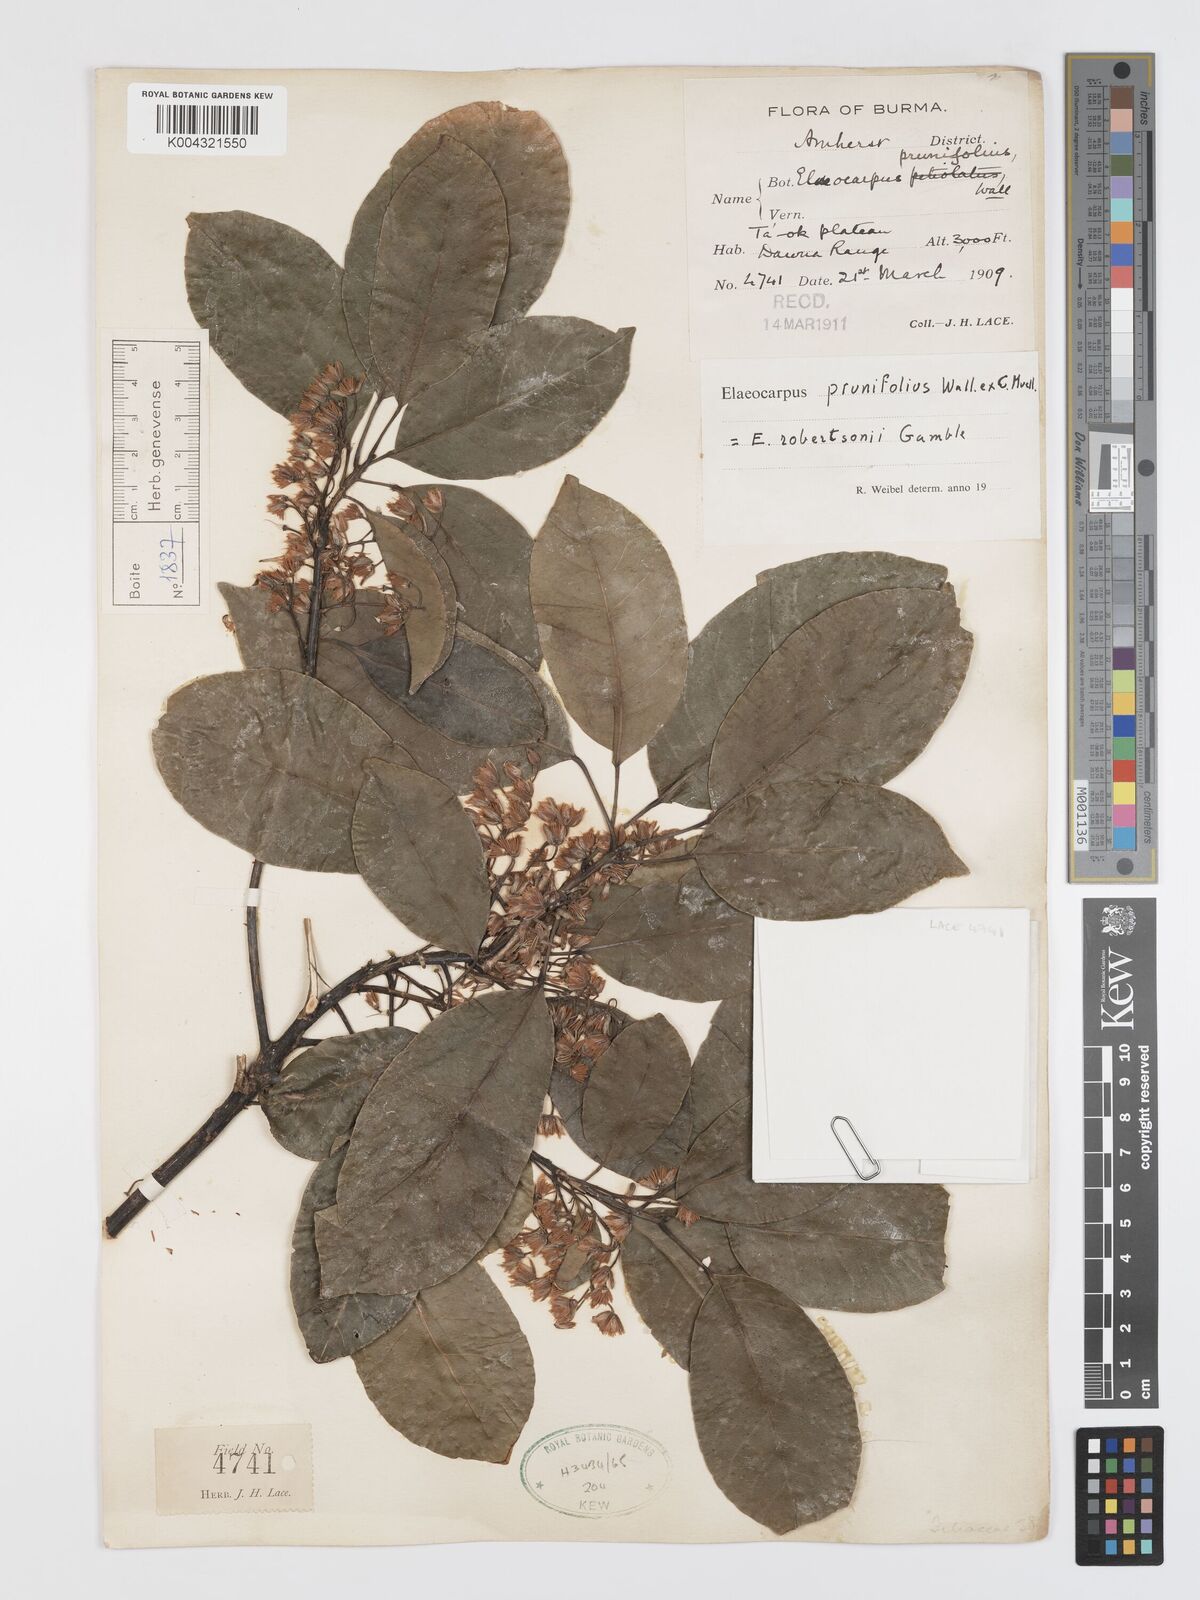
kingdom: Plantae
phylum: Tracheophyta
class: Magnoliopsida
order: Oxalidales
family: Elaeocarpaceae
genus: Elaeocarpus
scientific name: Elaeocarpus prunifolius
